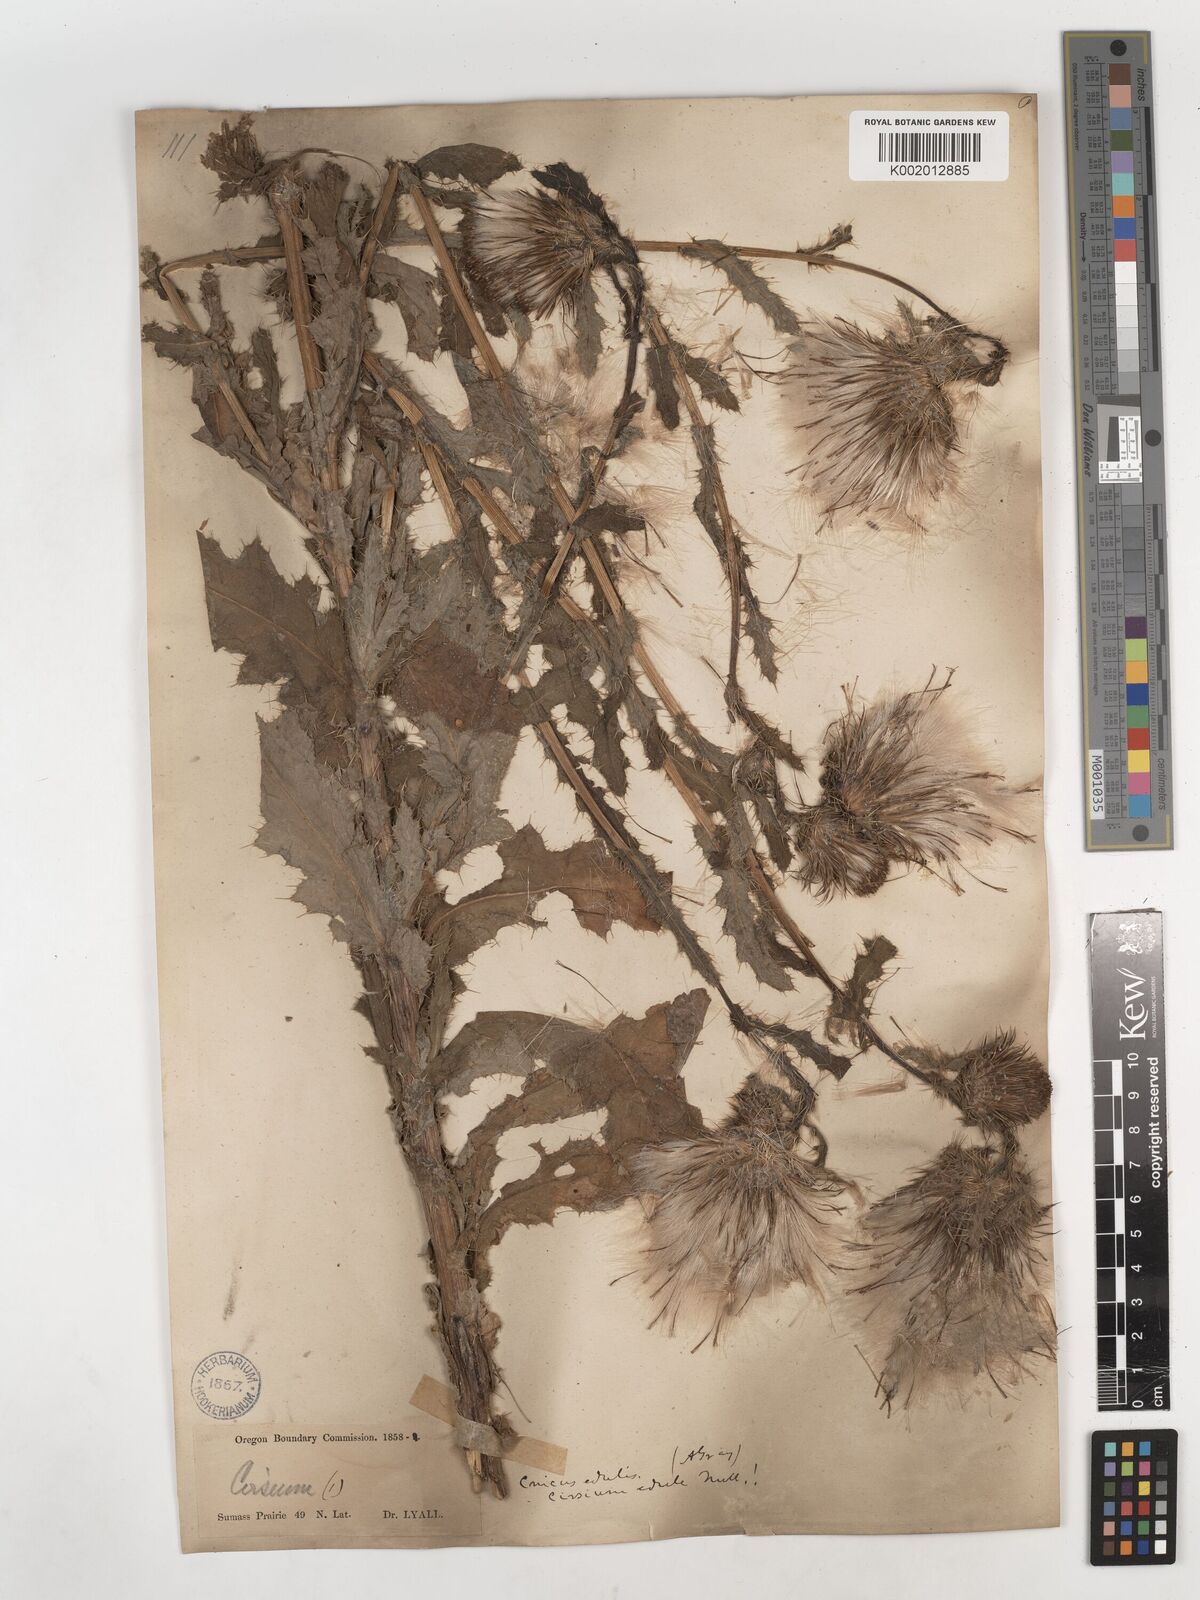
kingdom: Plantae
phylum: Tracheophyta
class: Magnoliopsida
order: Asterales
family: Asteraceae
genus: Cirsium
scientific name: Cirsium edule
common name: Indian thistle
